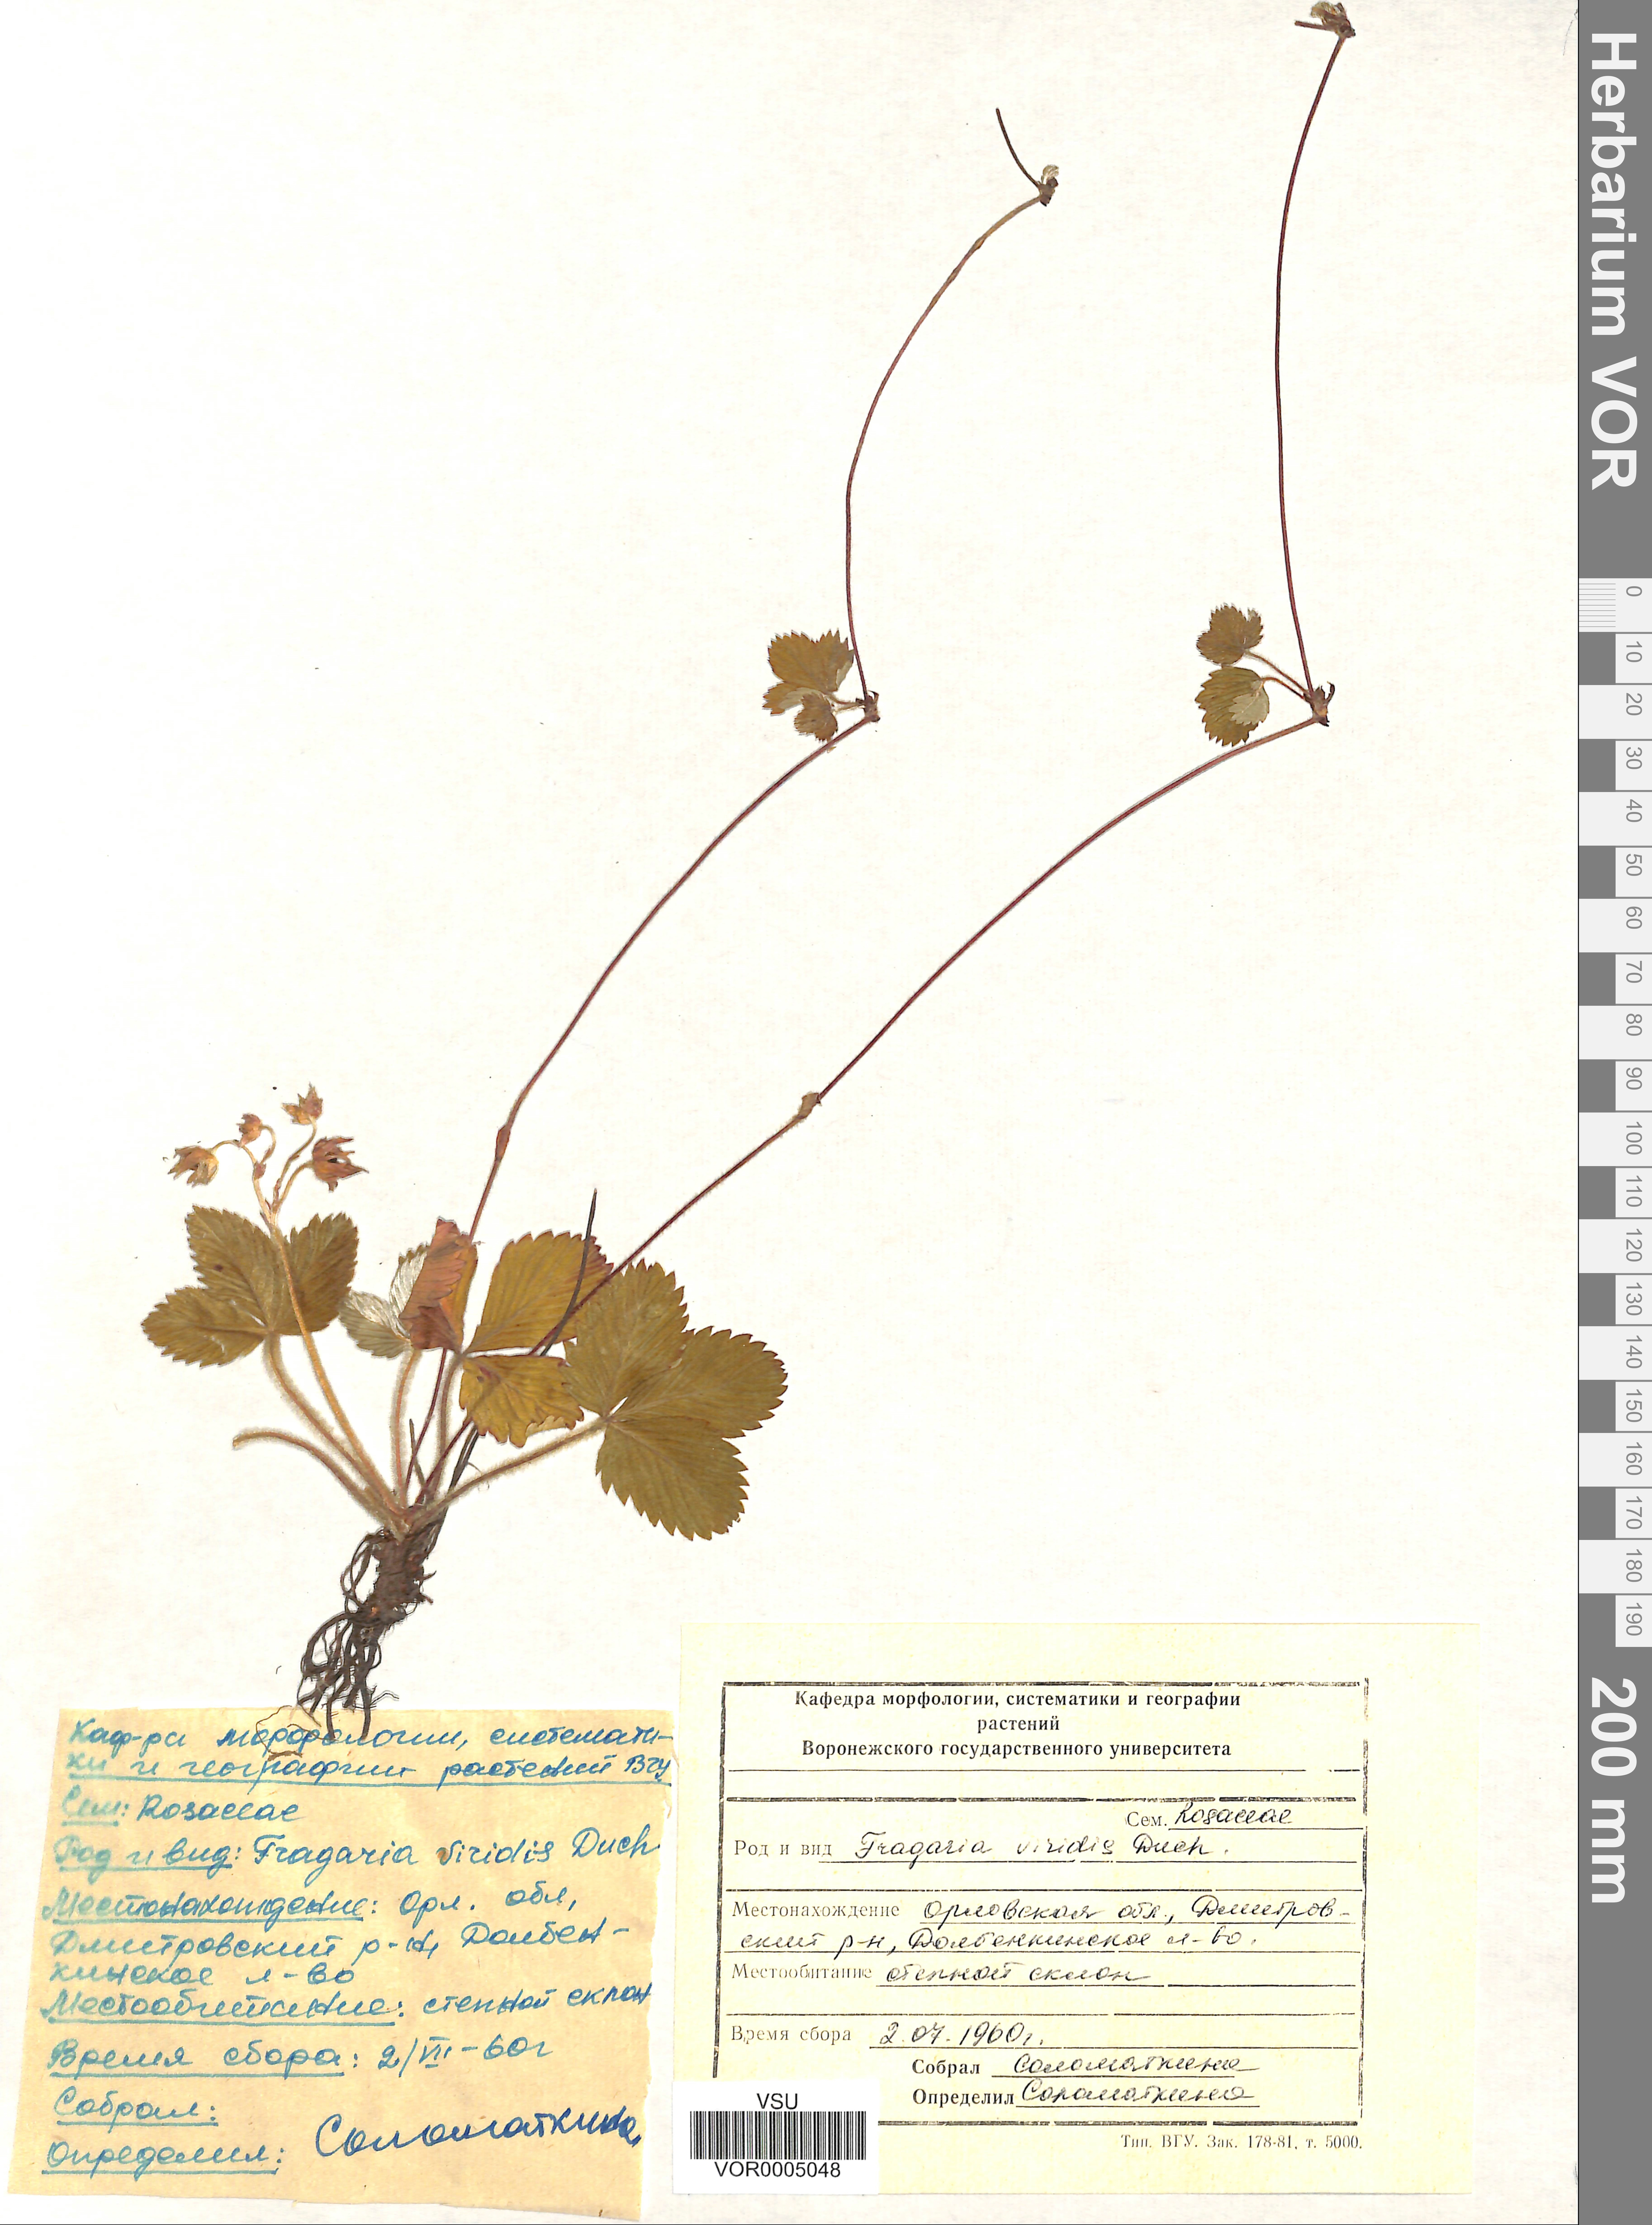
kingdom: Plantae
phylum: Tracheophyta
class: Magnoliopsida
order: Rosales
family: Rosaceae
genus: Fragaria
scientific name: Fragaria viridis
